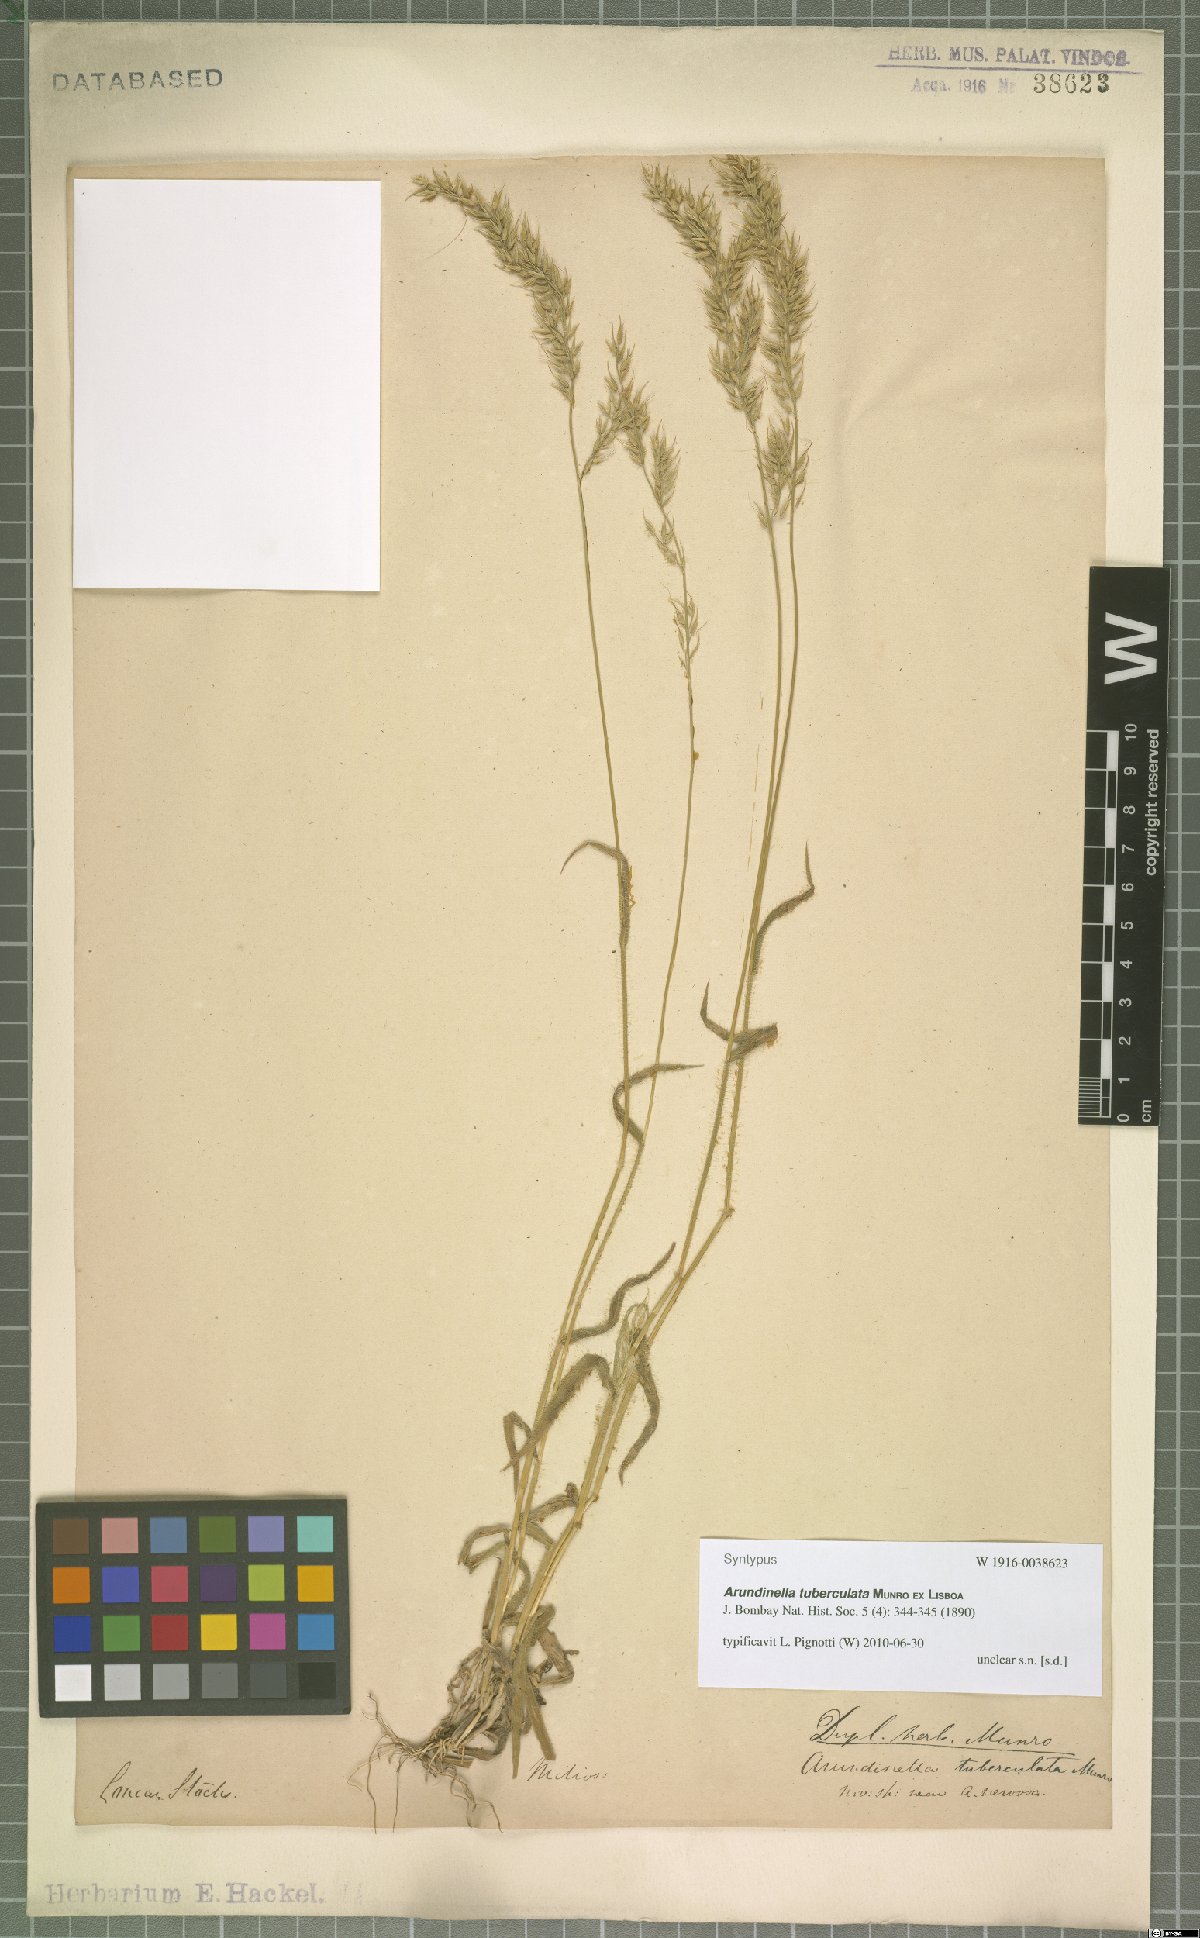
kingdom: Plantae
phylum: Tracheophyta
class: Liliopsida
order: Poales
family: Poaceae
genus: Arundinella
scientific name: Arundinella tuberculata
